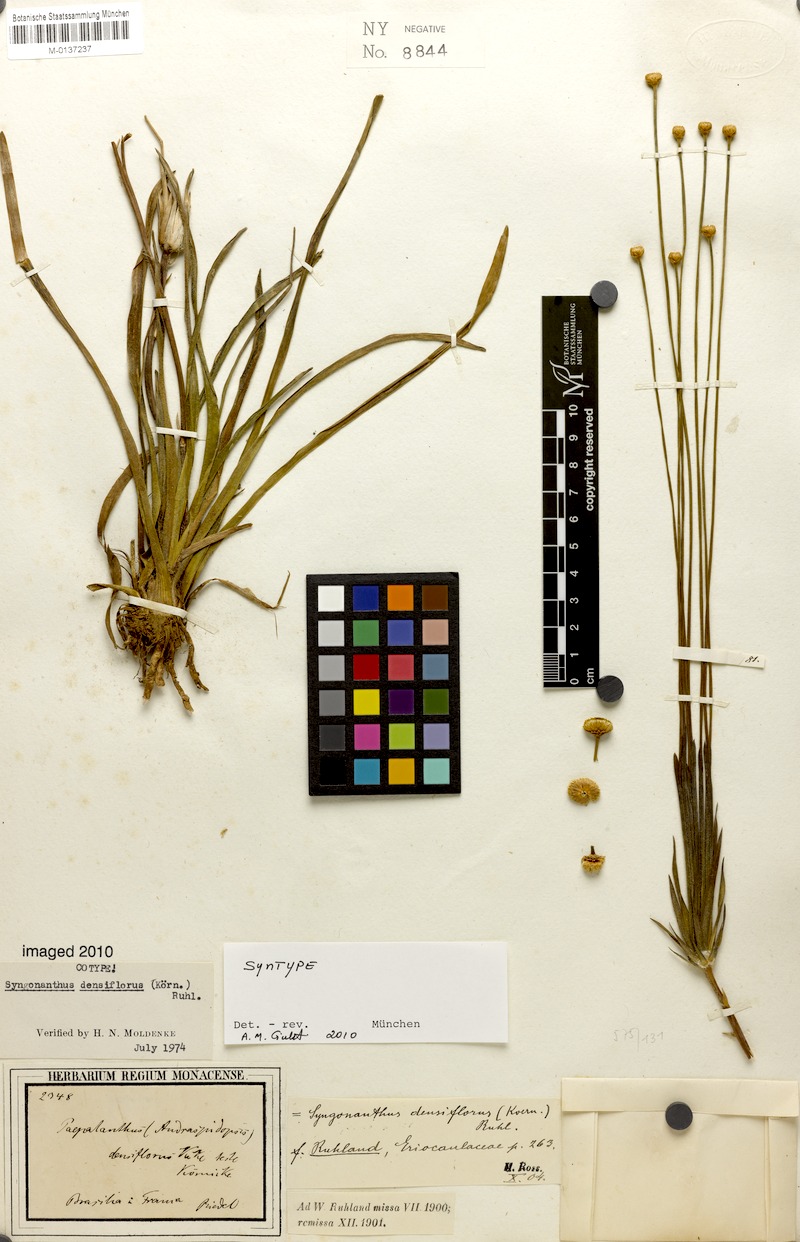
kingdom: Plantae
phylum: Tracheophyta
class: Liliopsida
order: Poales
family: Eriocaulaceae
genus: Syngonanthus
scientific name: Syngonanthus densiflorus
